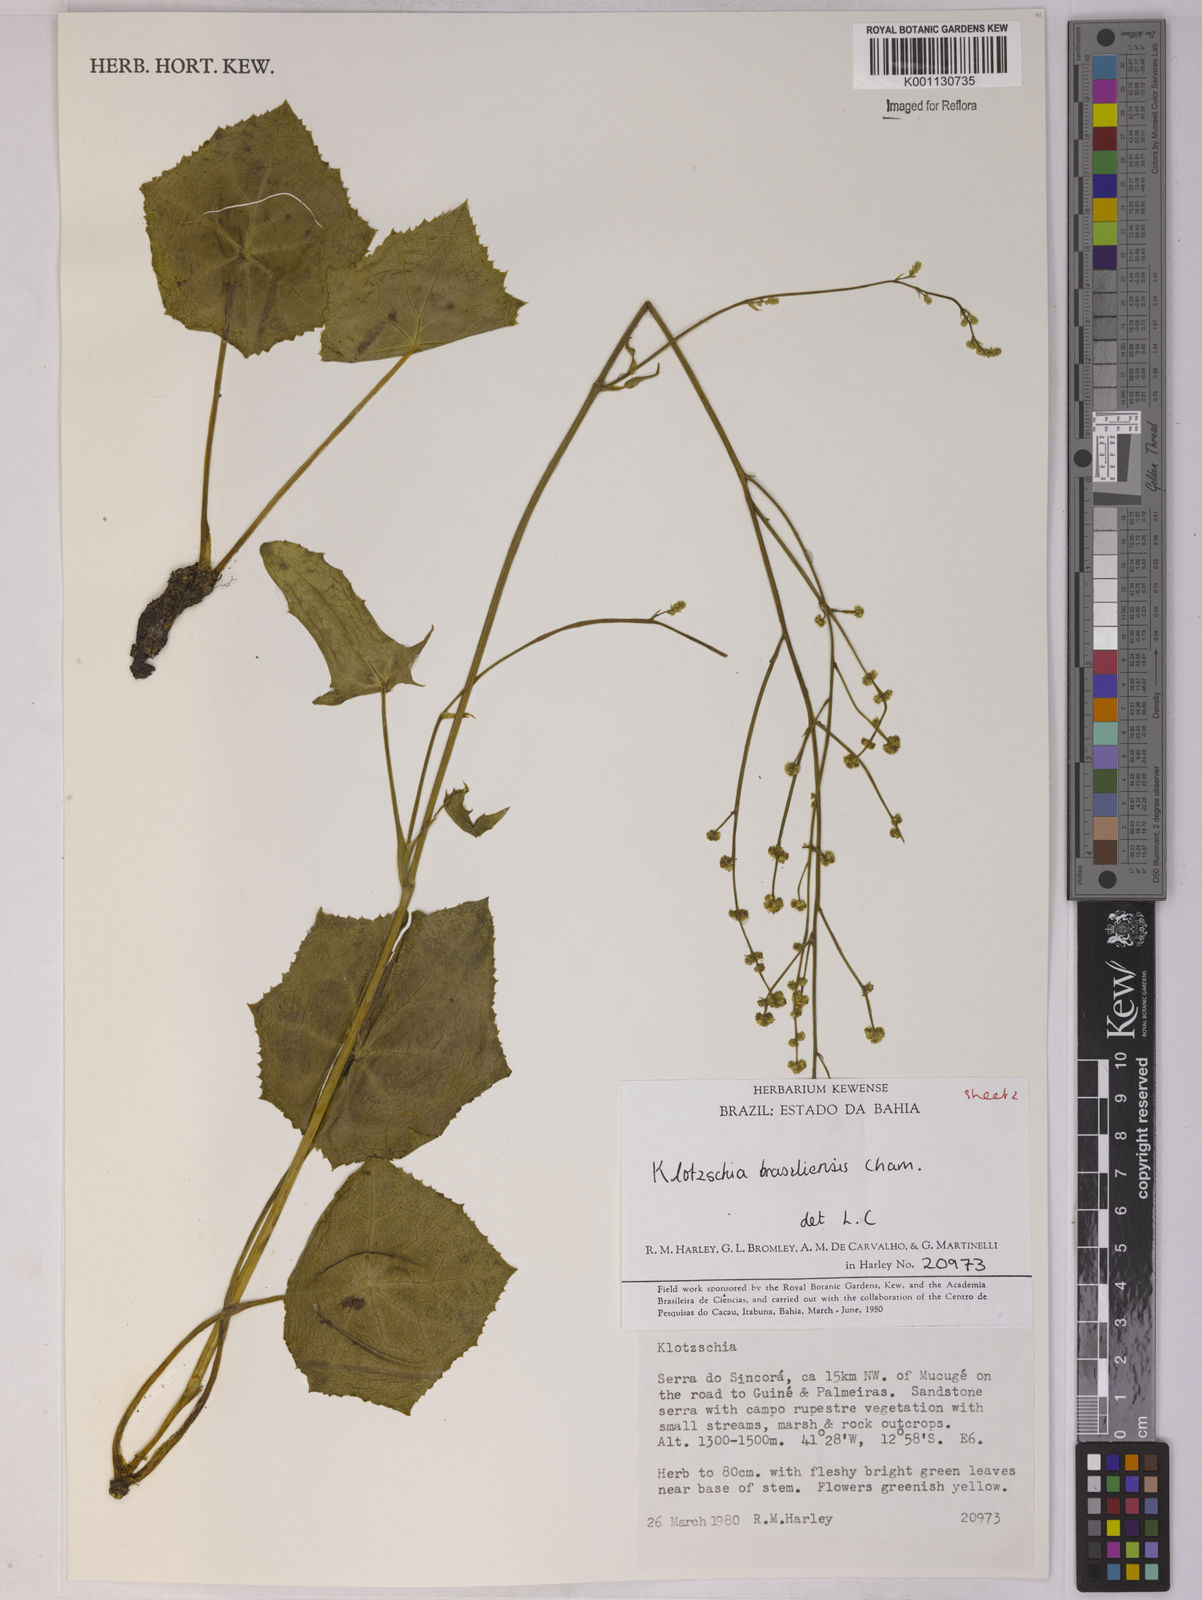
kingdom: Plantae
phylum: Tracheophyta
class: Magnoliopsida
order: Apiales
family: Apiaceae
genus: Klotzschia
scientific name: Klotzschia brasiliensis
